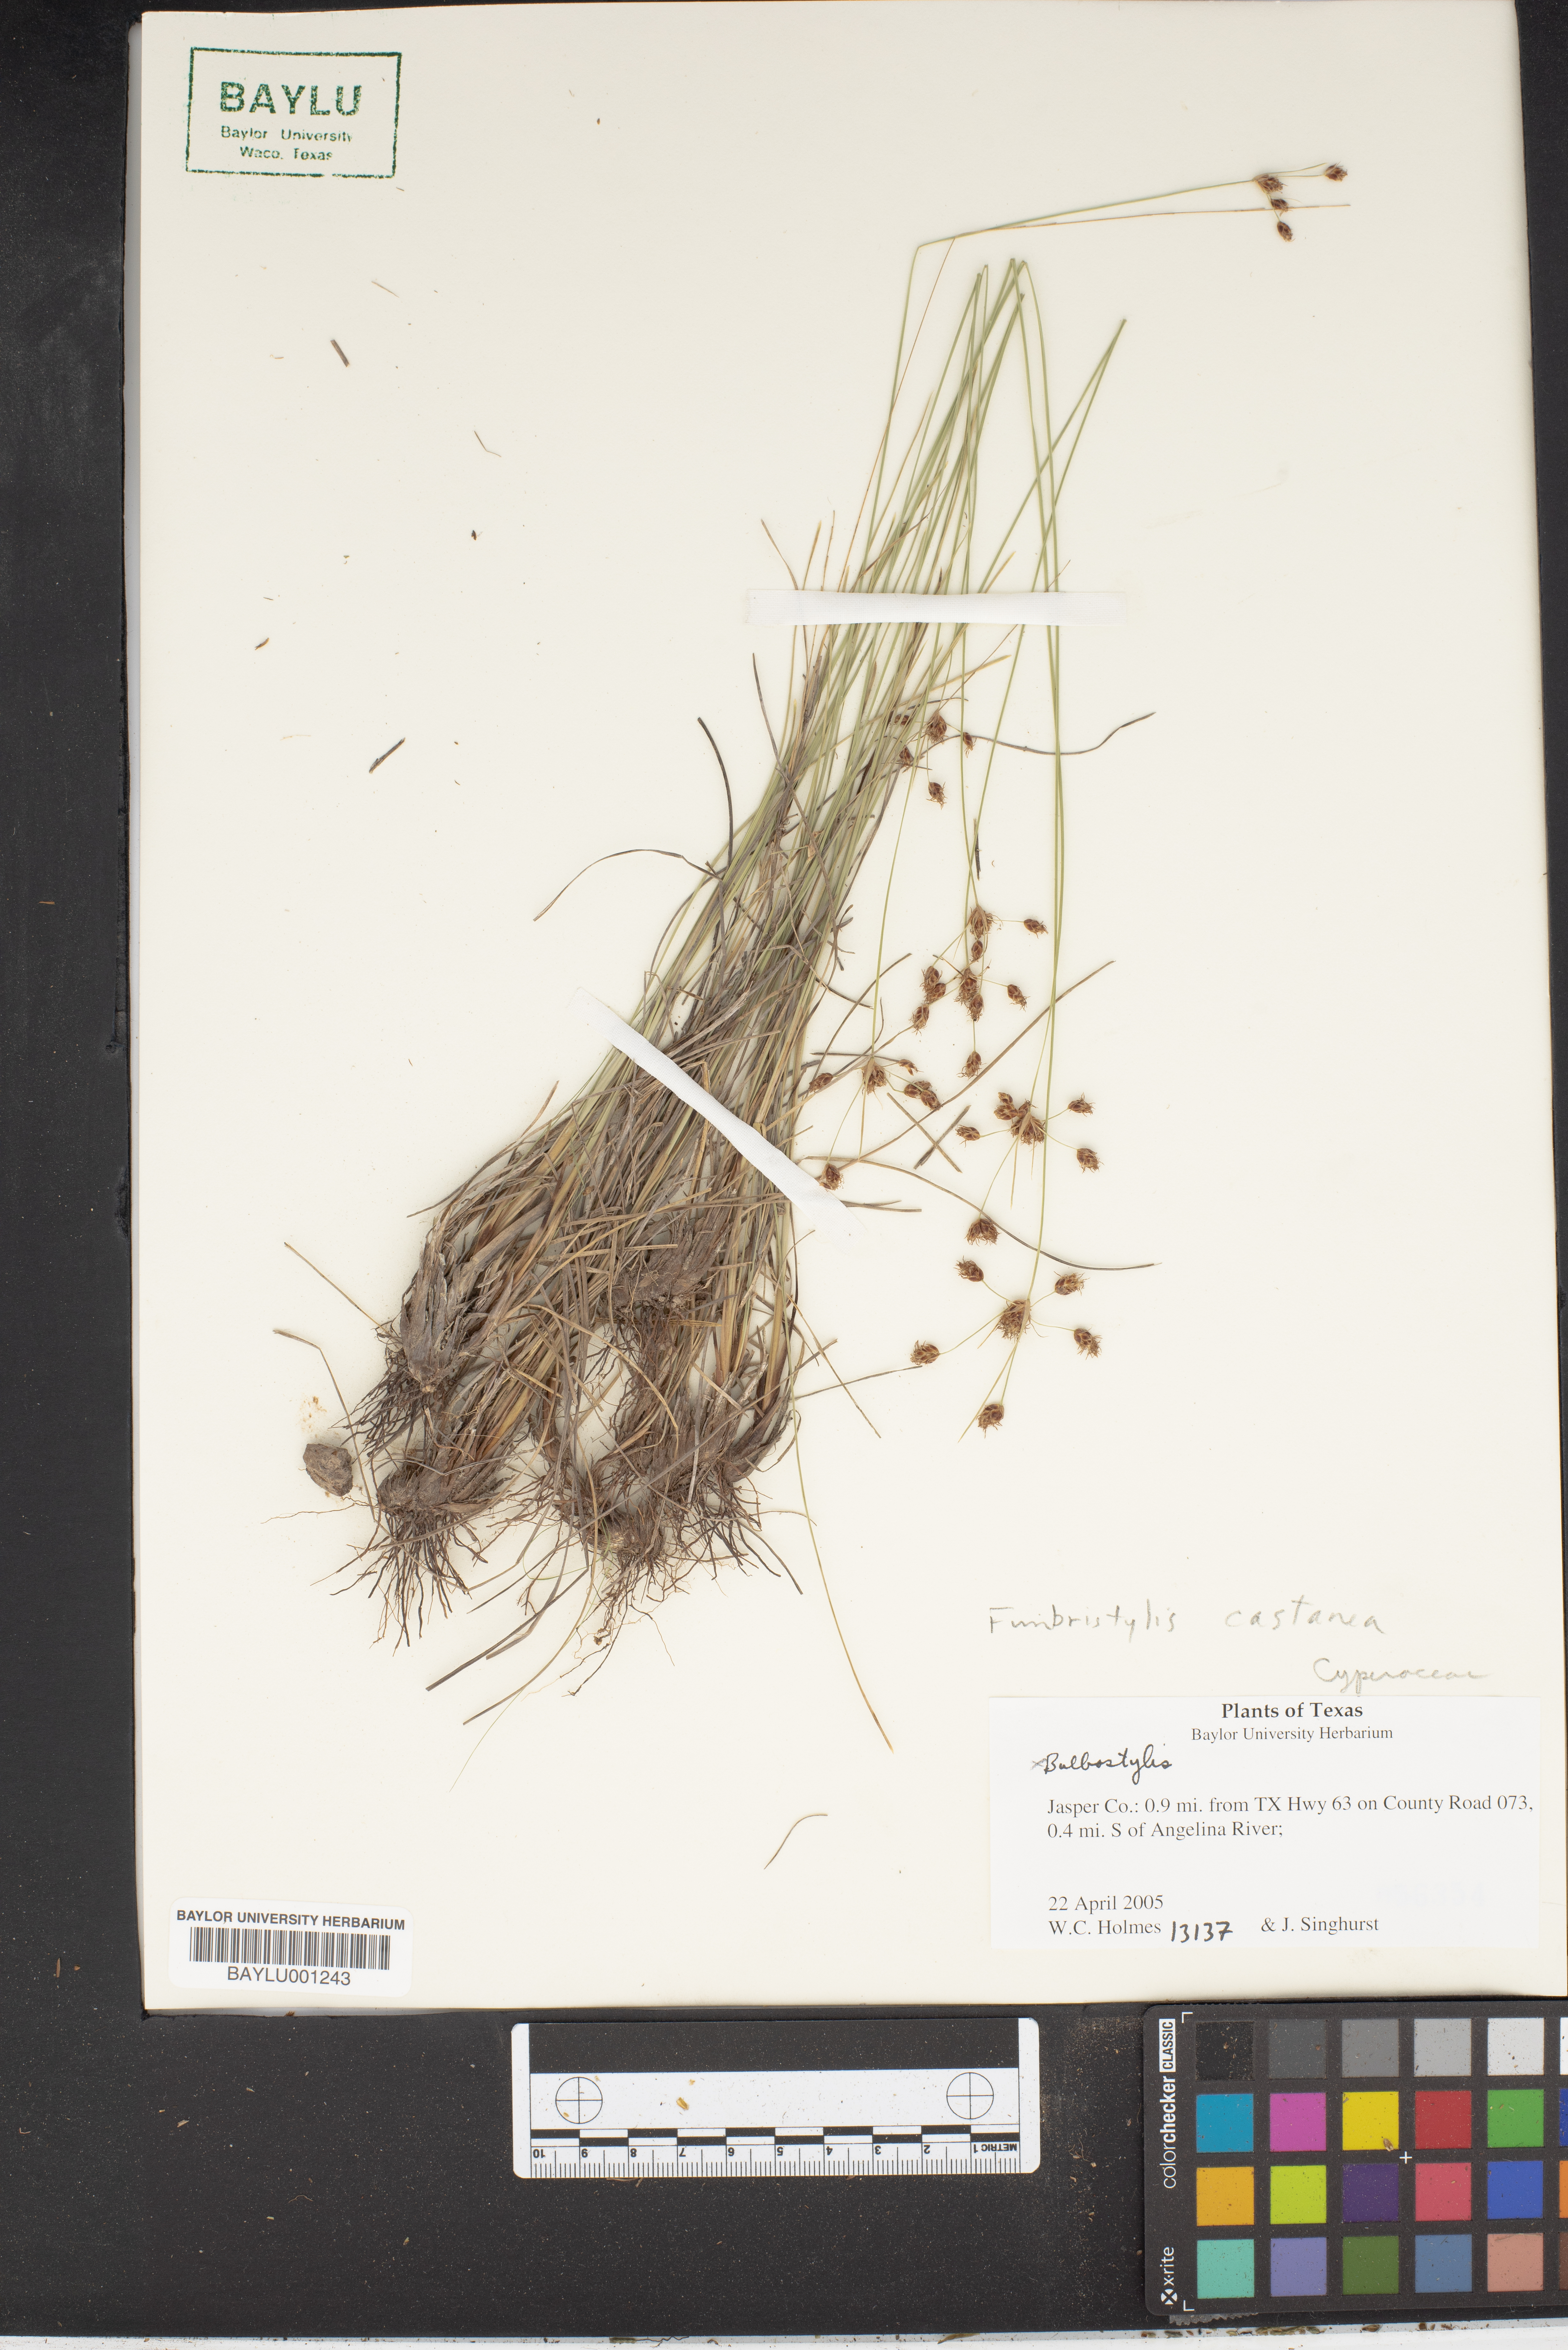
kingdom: Plantae
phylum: Tracheophyta
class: Liliopsida
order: Poales
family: Cyperaceae
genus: Fimbristylis
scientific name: Fimbristylis spadicea
